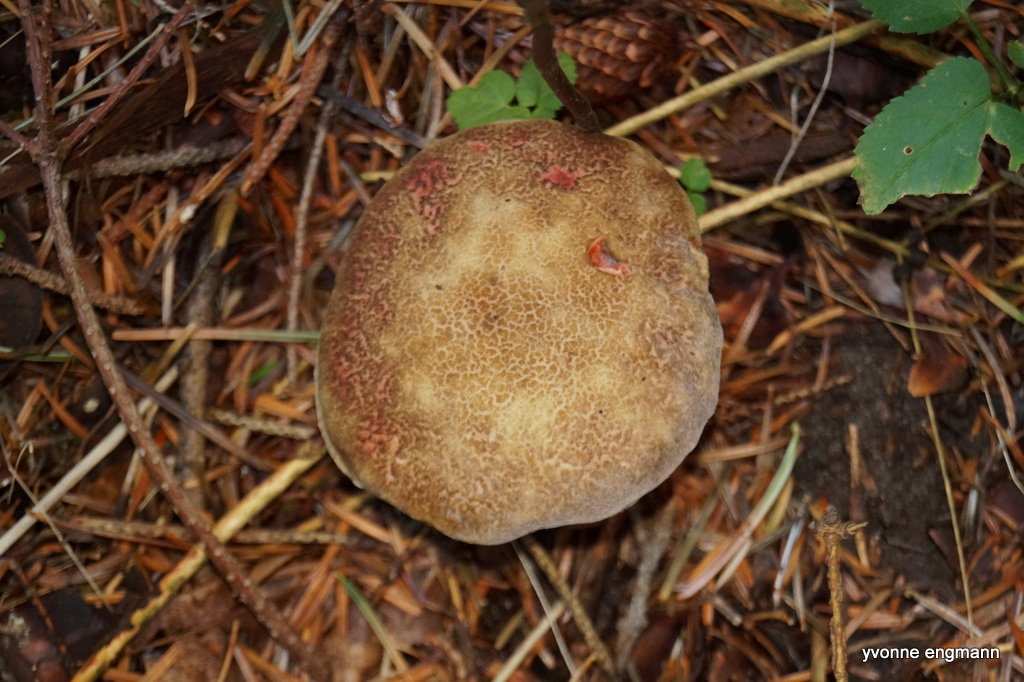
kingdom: Fungi
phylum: Basidiomycota
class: Agaricomycetes
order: Boletales
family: Boletaceae
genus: Xerocomellus
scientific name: Xerocomellus
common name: dværgrørhat
